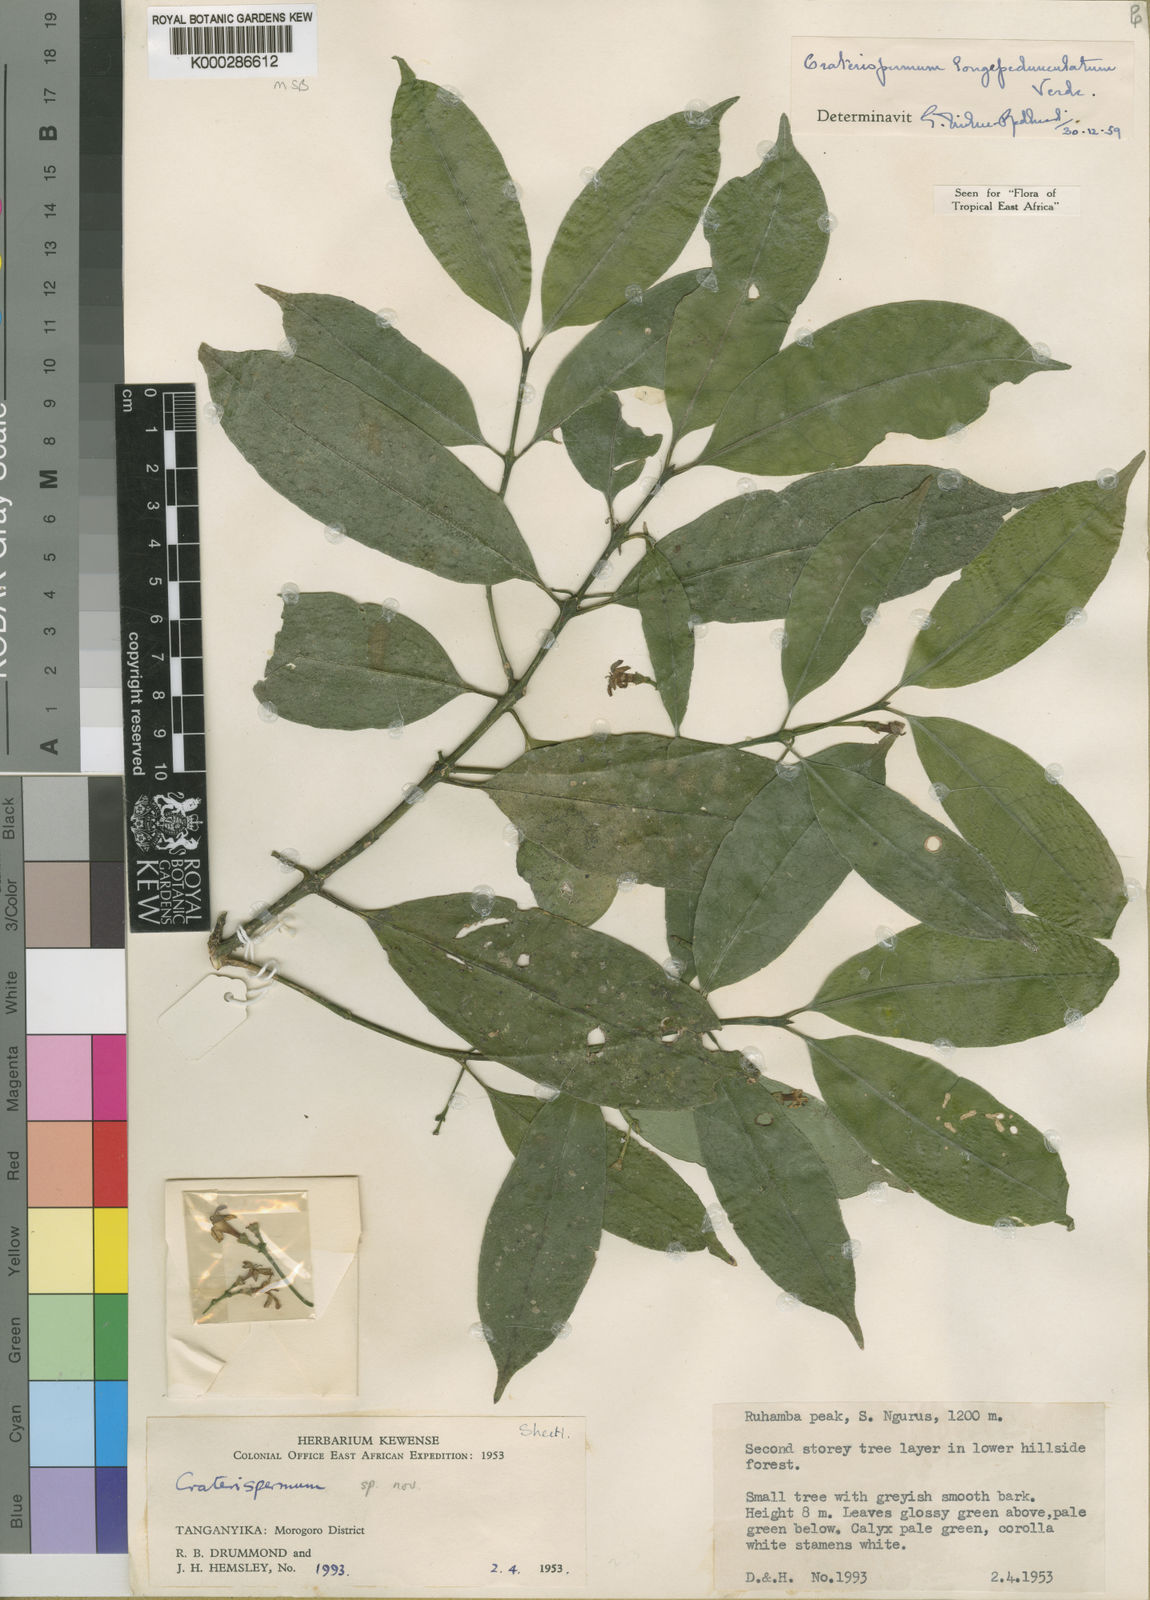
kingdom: Plantae
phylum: Tracheophyta
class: Magnoliopsida
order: Gentianales
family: Rubiaceae
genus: Craterispermum
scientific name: Craterispermum longipedunculatum
